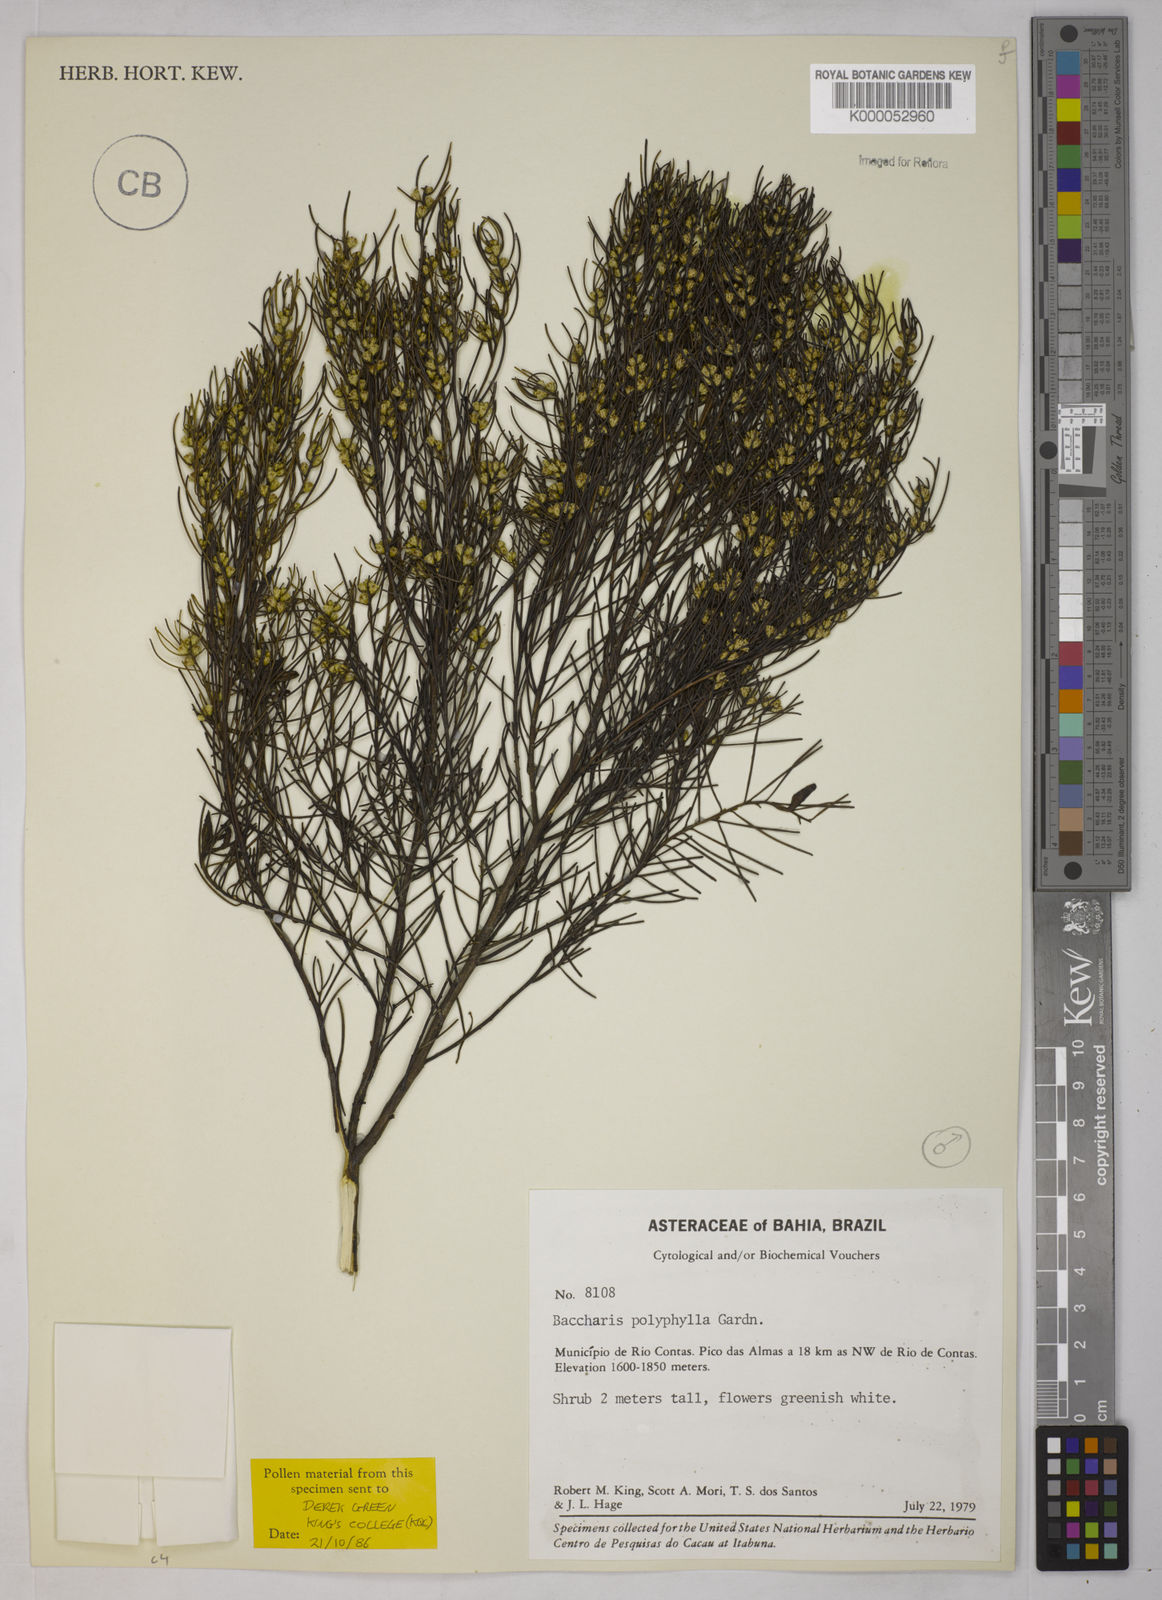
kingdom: Plantae
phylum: Tracheophyta
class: Magnoliopsida
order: Asterales
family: Asteraceae
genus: Baccharis
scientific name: Baccharis polyphylla
